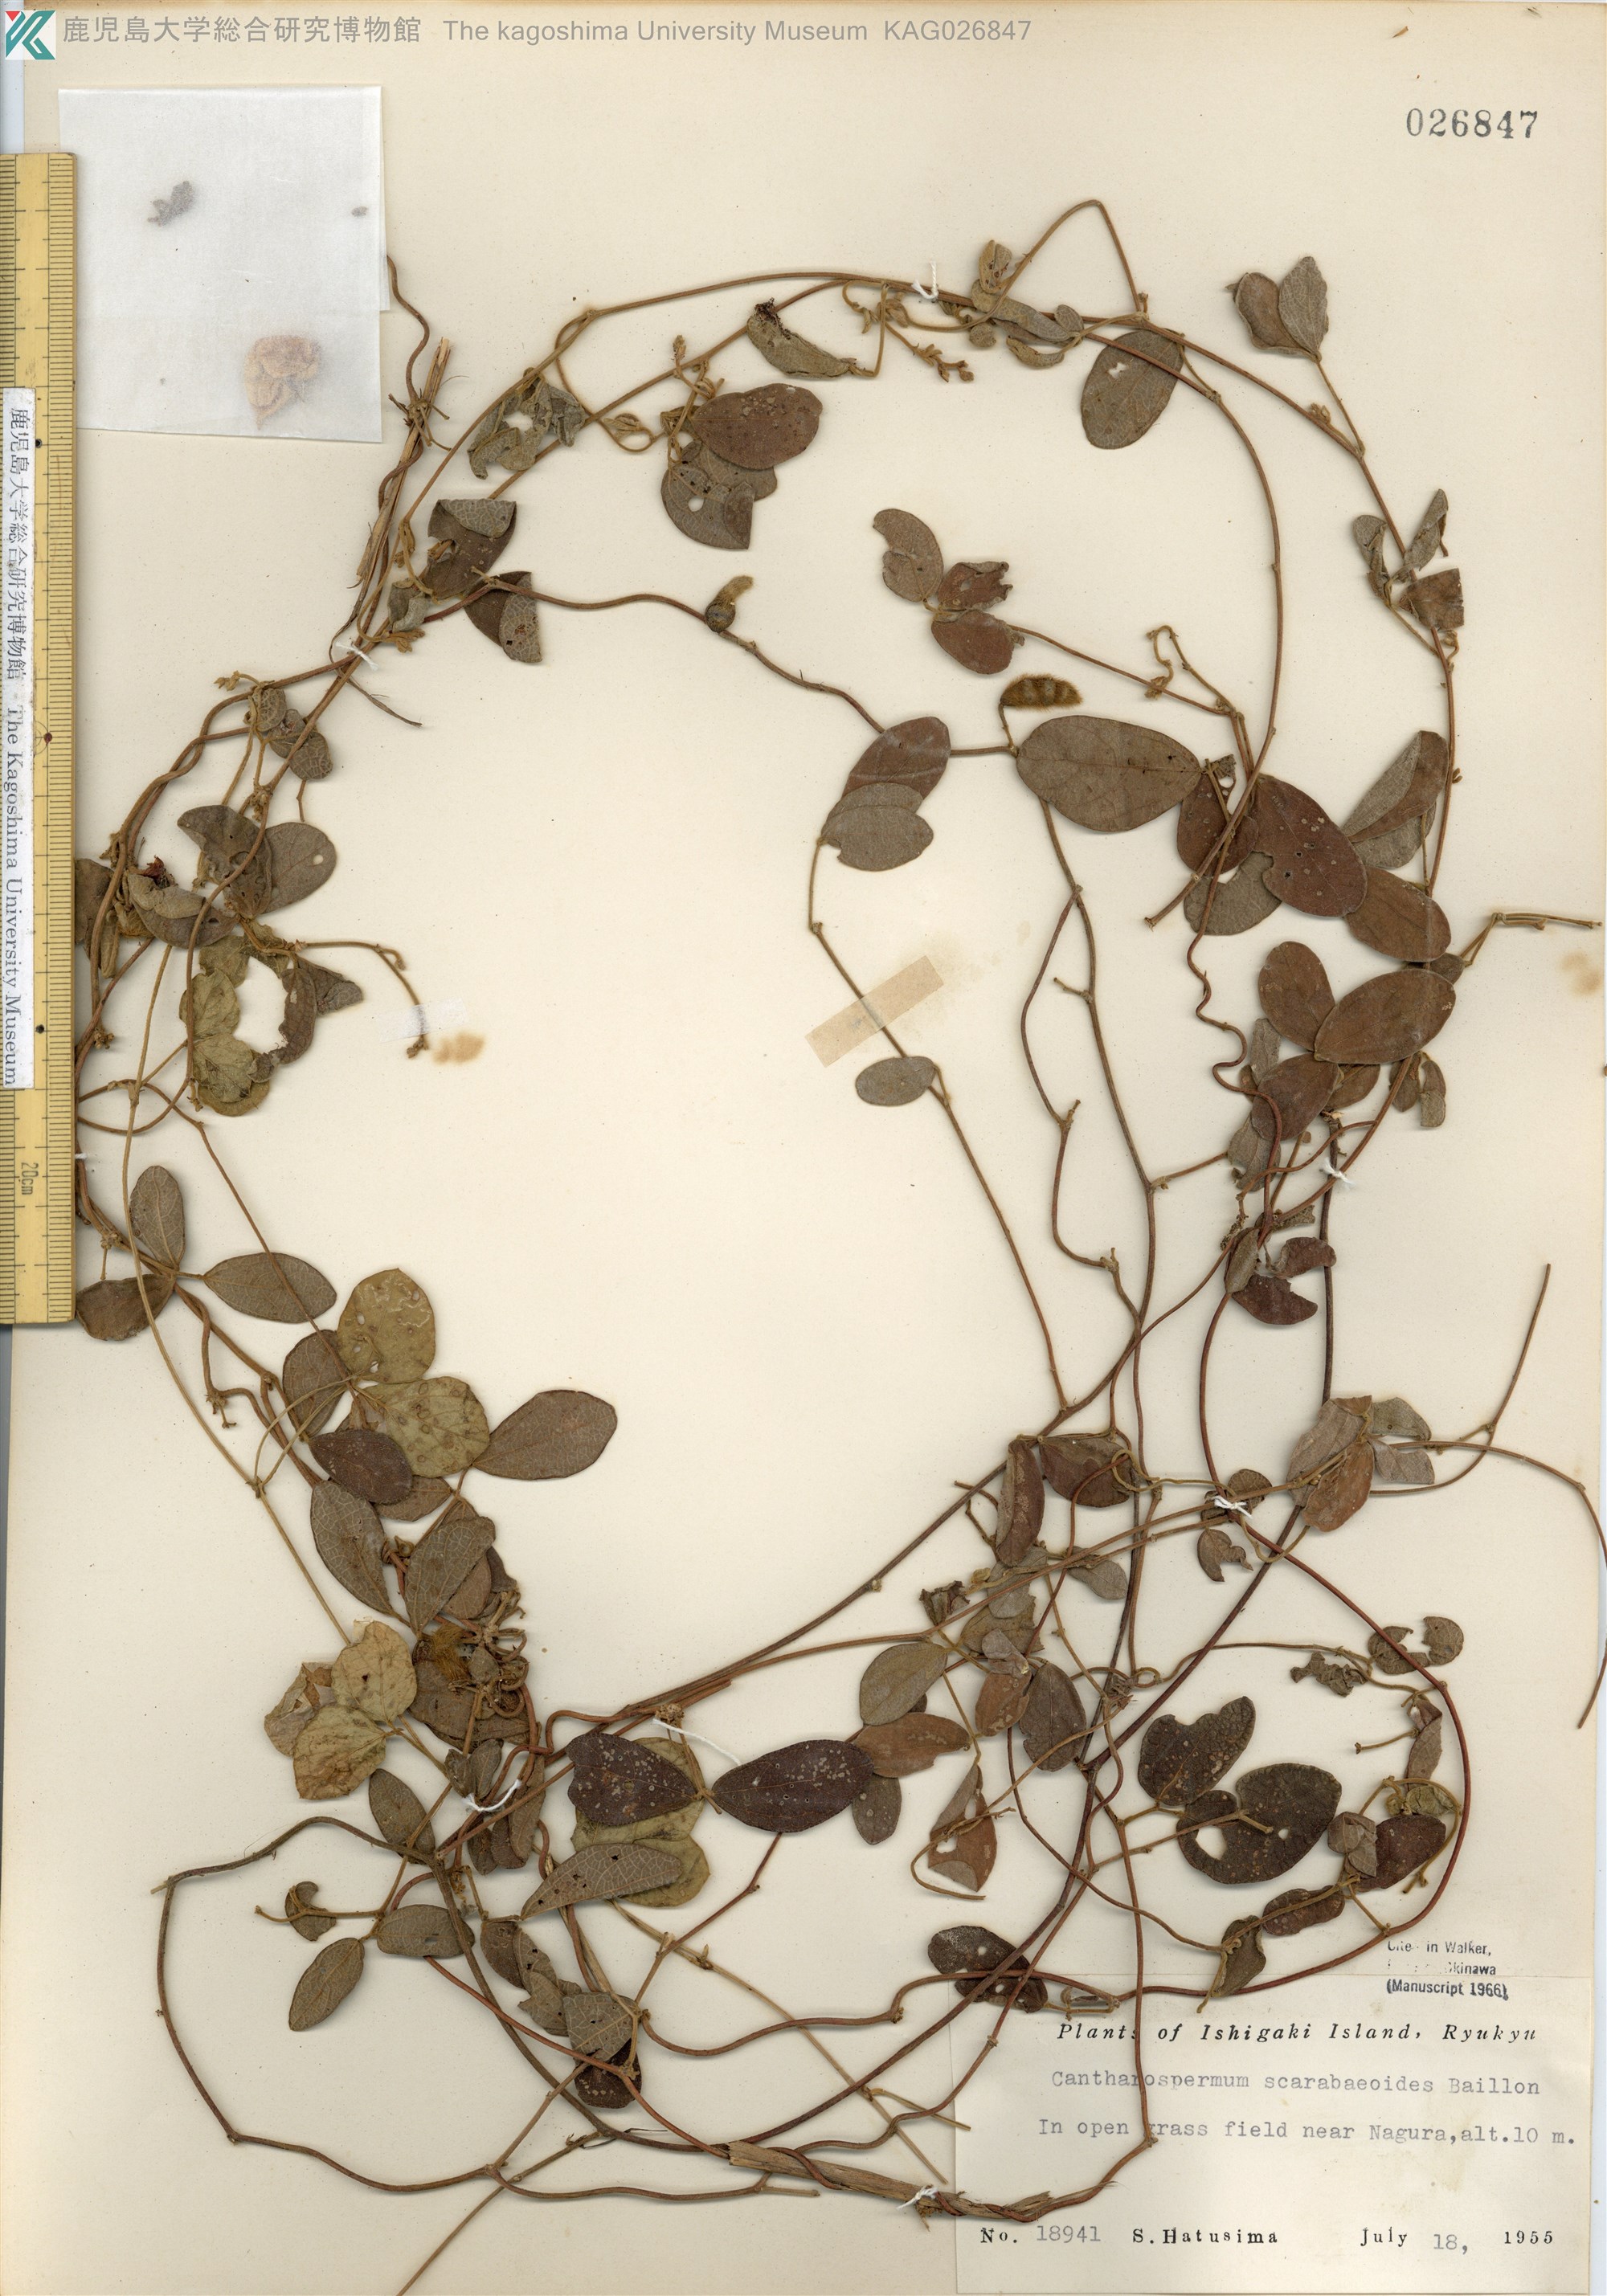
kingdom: Plantae
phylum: Tracheophyta
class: Magnoliopsida
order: Fabales
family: Fabaceae
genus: Cajanus
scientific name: Cajanus scarabaeoides
